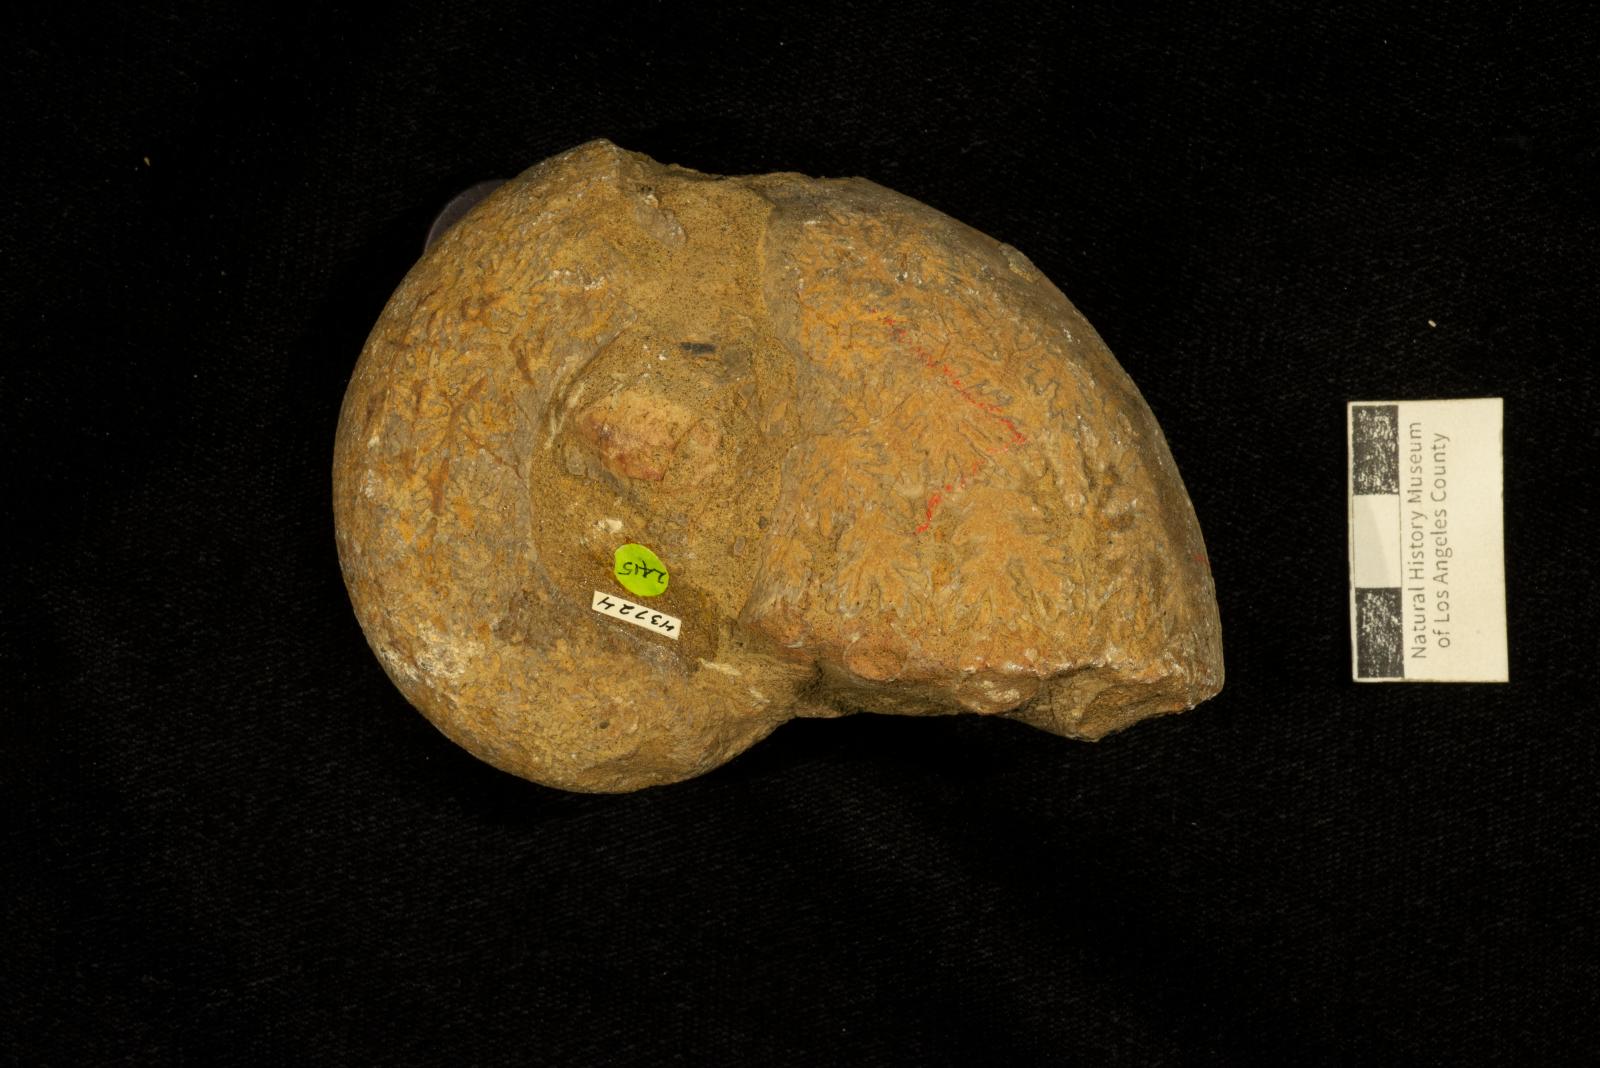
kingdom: Animalia
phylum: Mollusca
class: Cephalopoda
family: Pachydiscidae
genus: Menuites
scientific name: Menuites
